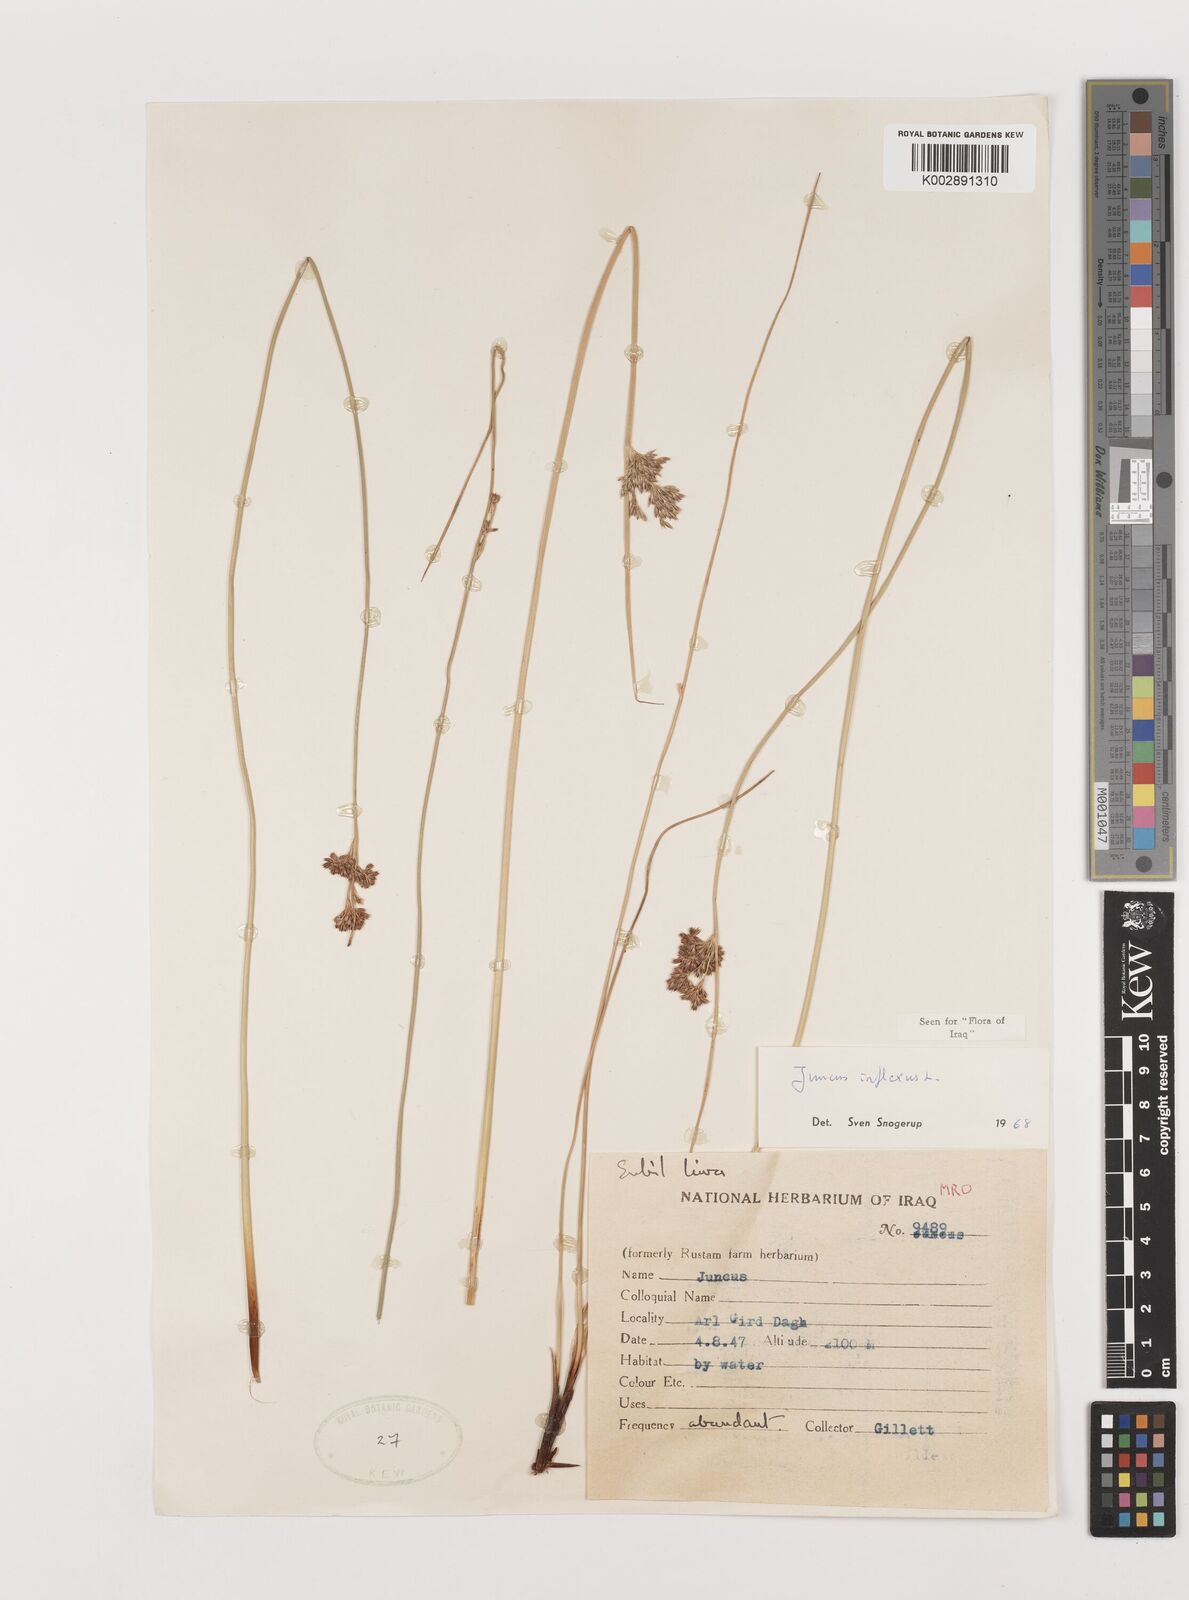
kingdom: Plantae
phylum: Tracheophyta
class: Liliopsida
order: Poales
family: Juncaceae
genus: Juncus
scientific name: Juncus inflexus
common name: Hard rush
